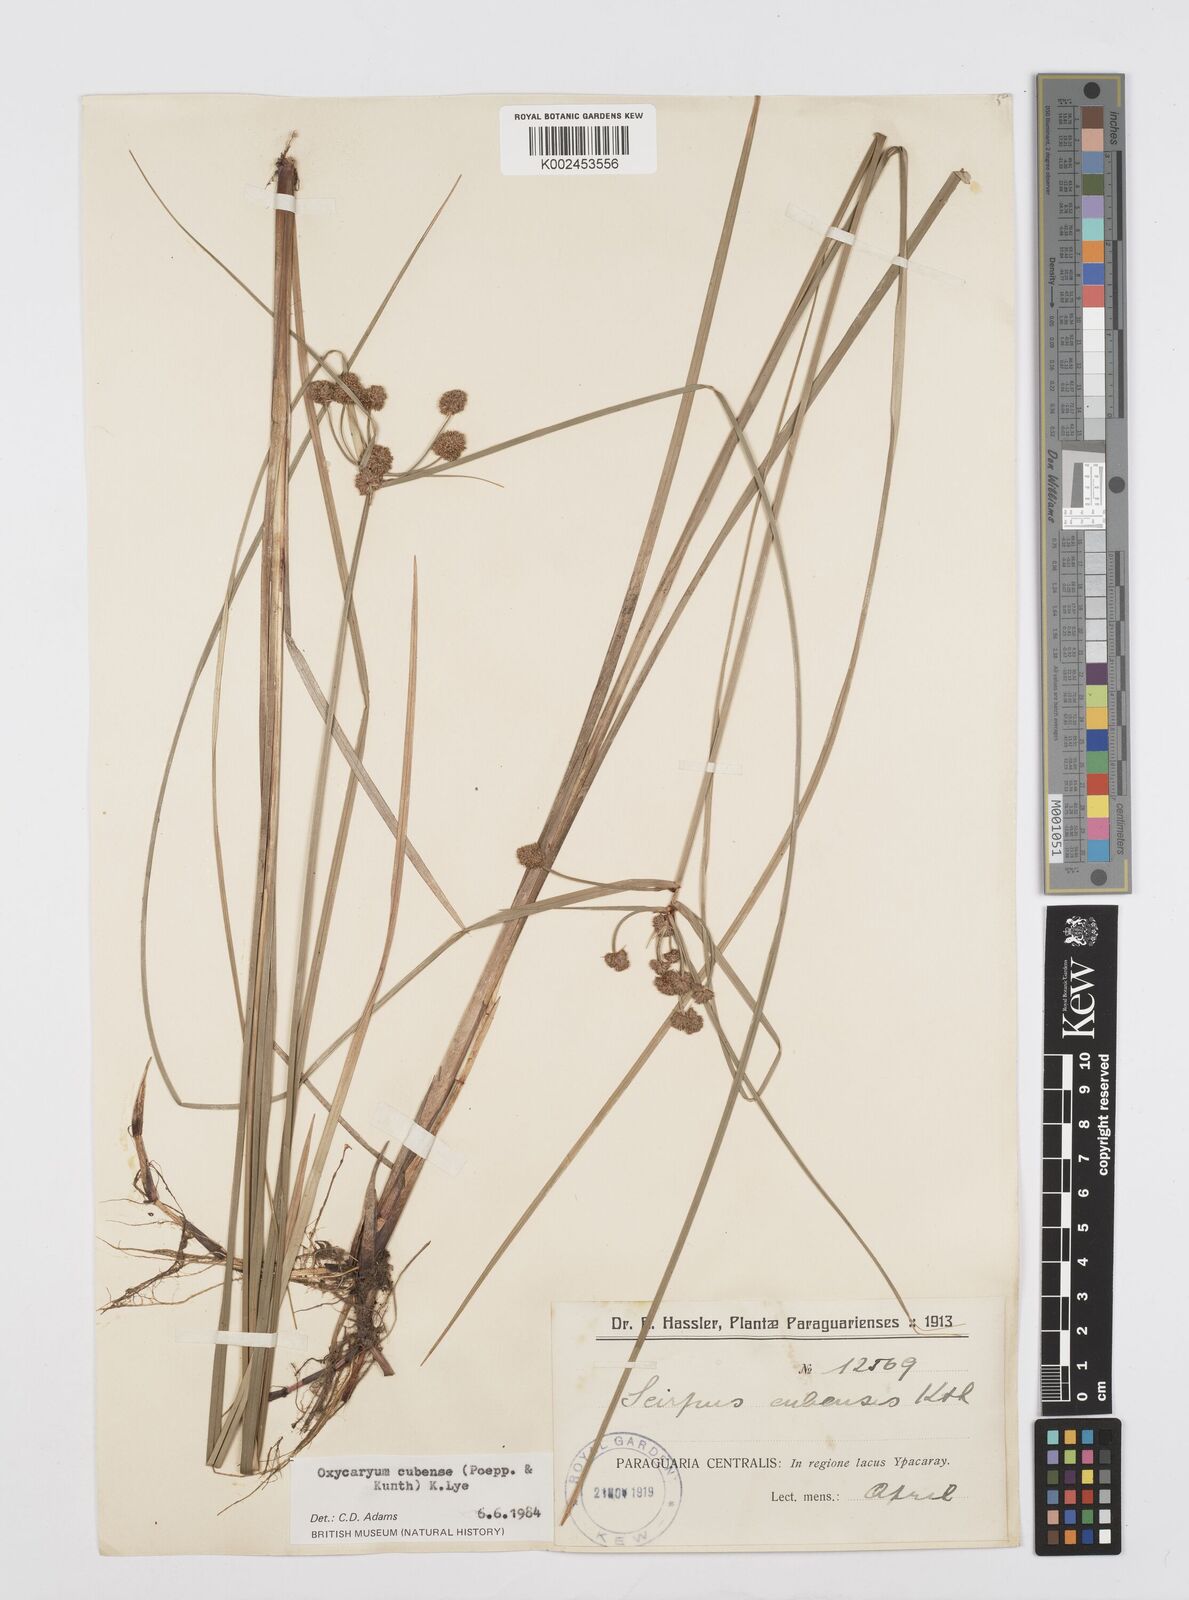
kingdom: Plantae
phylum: Tracheophyta
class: Liliopsida
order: Poales
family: Cyperaceae
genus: Cyperus
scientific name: Cyperus elegans
